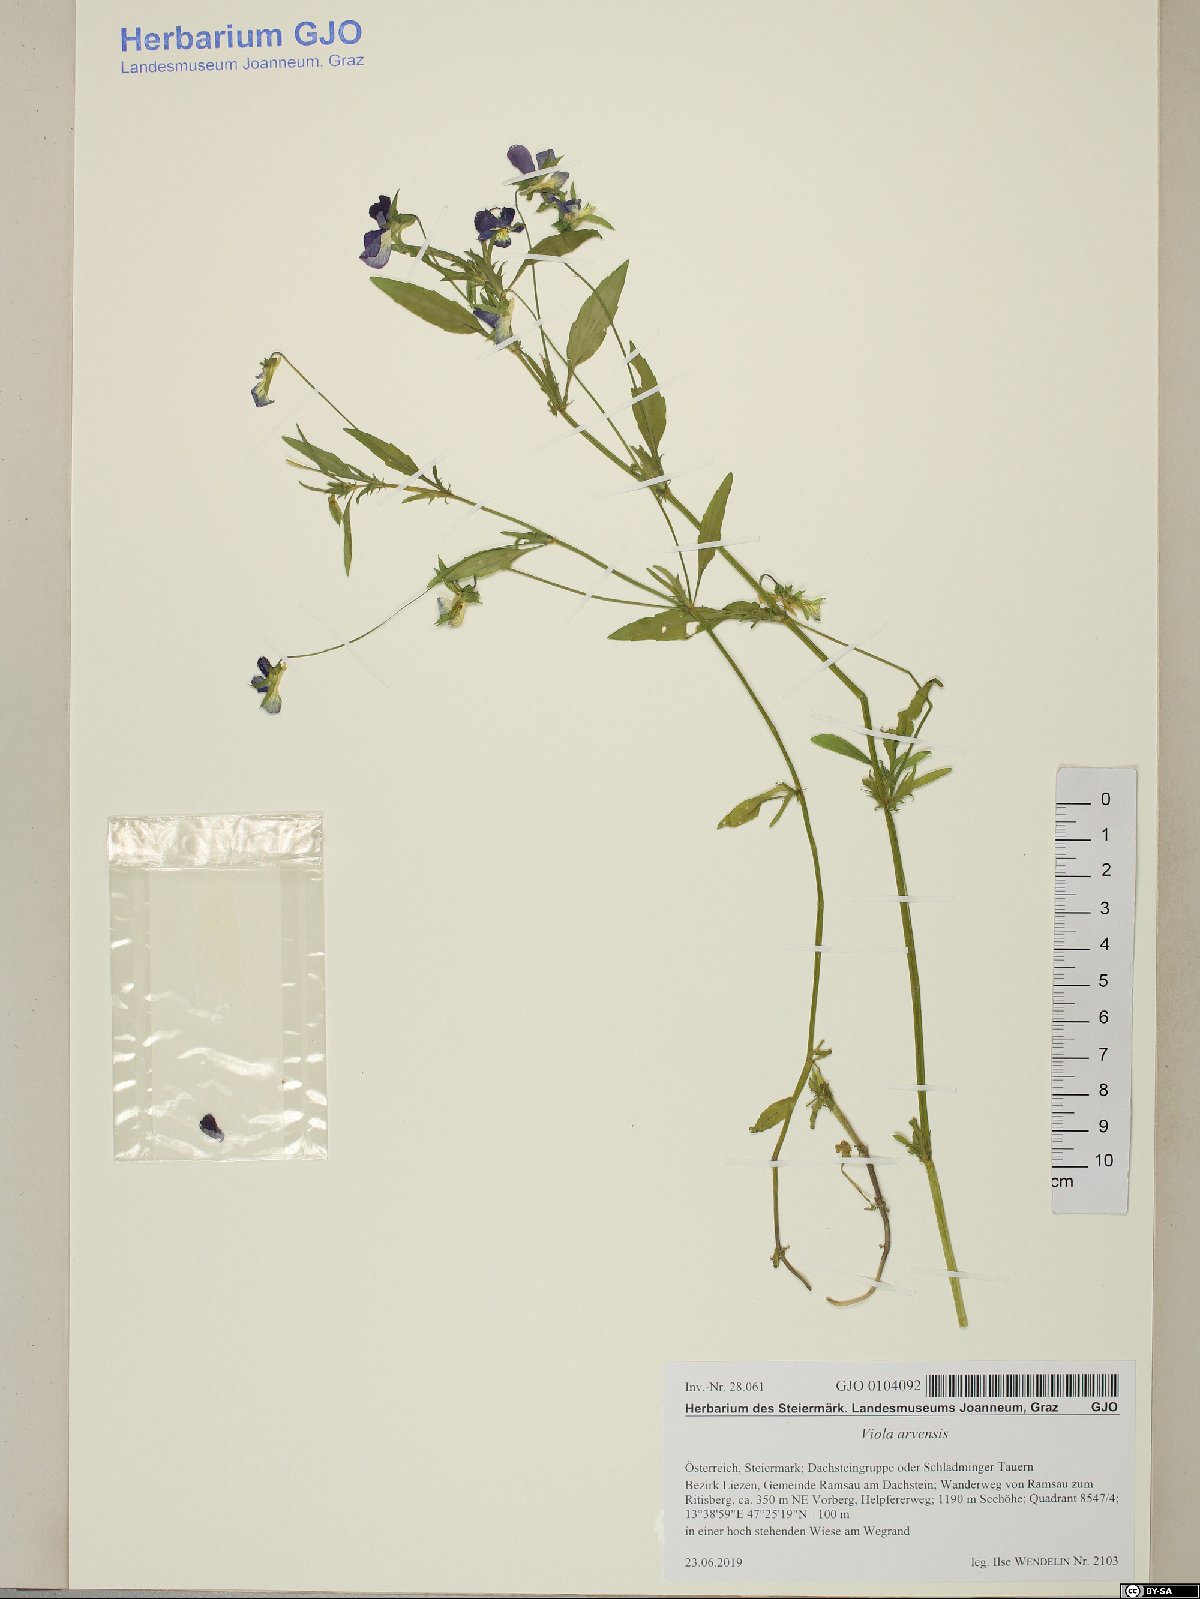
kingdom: Plantae
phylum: Tracheophyta
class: Magnoliopsida
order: Malpighiales
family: Violaceae
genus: Viola
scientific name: Viola arvensis
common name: Field pansy
